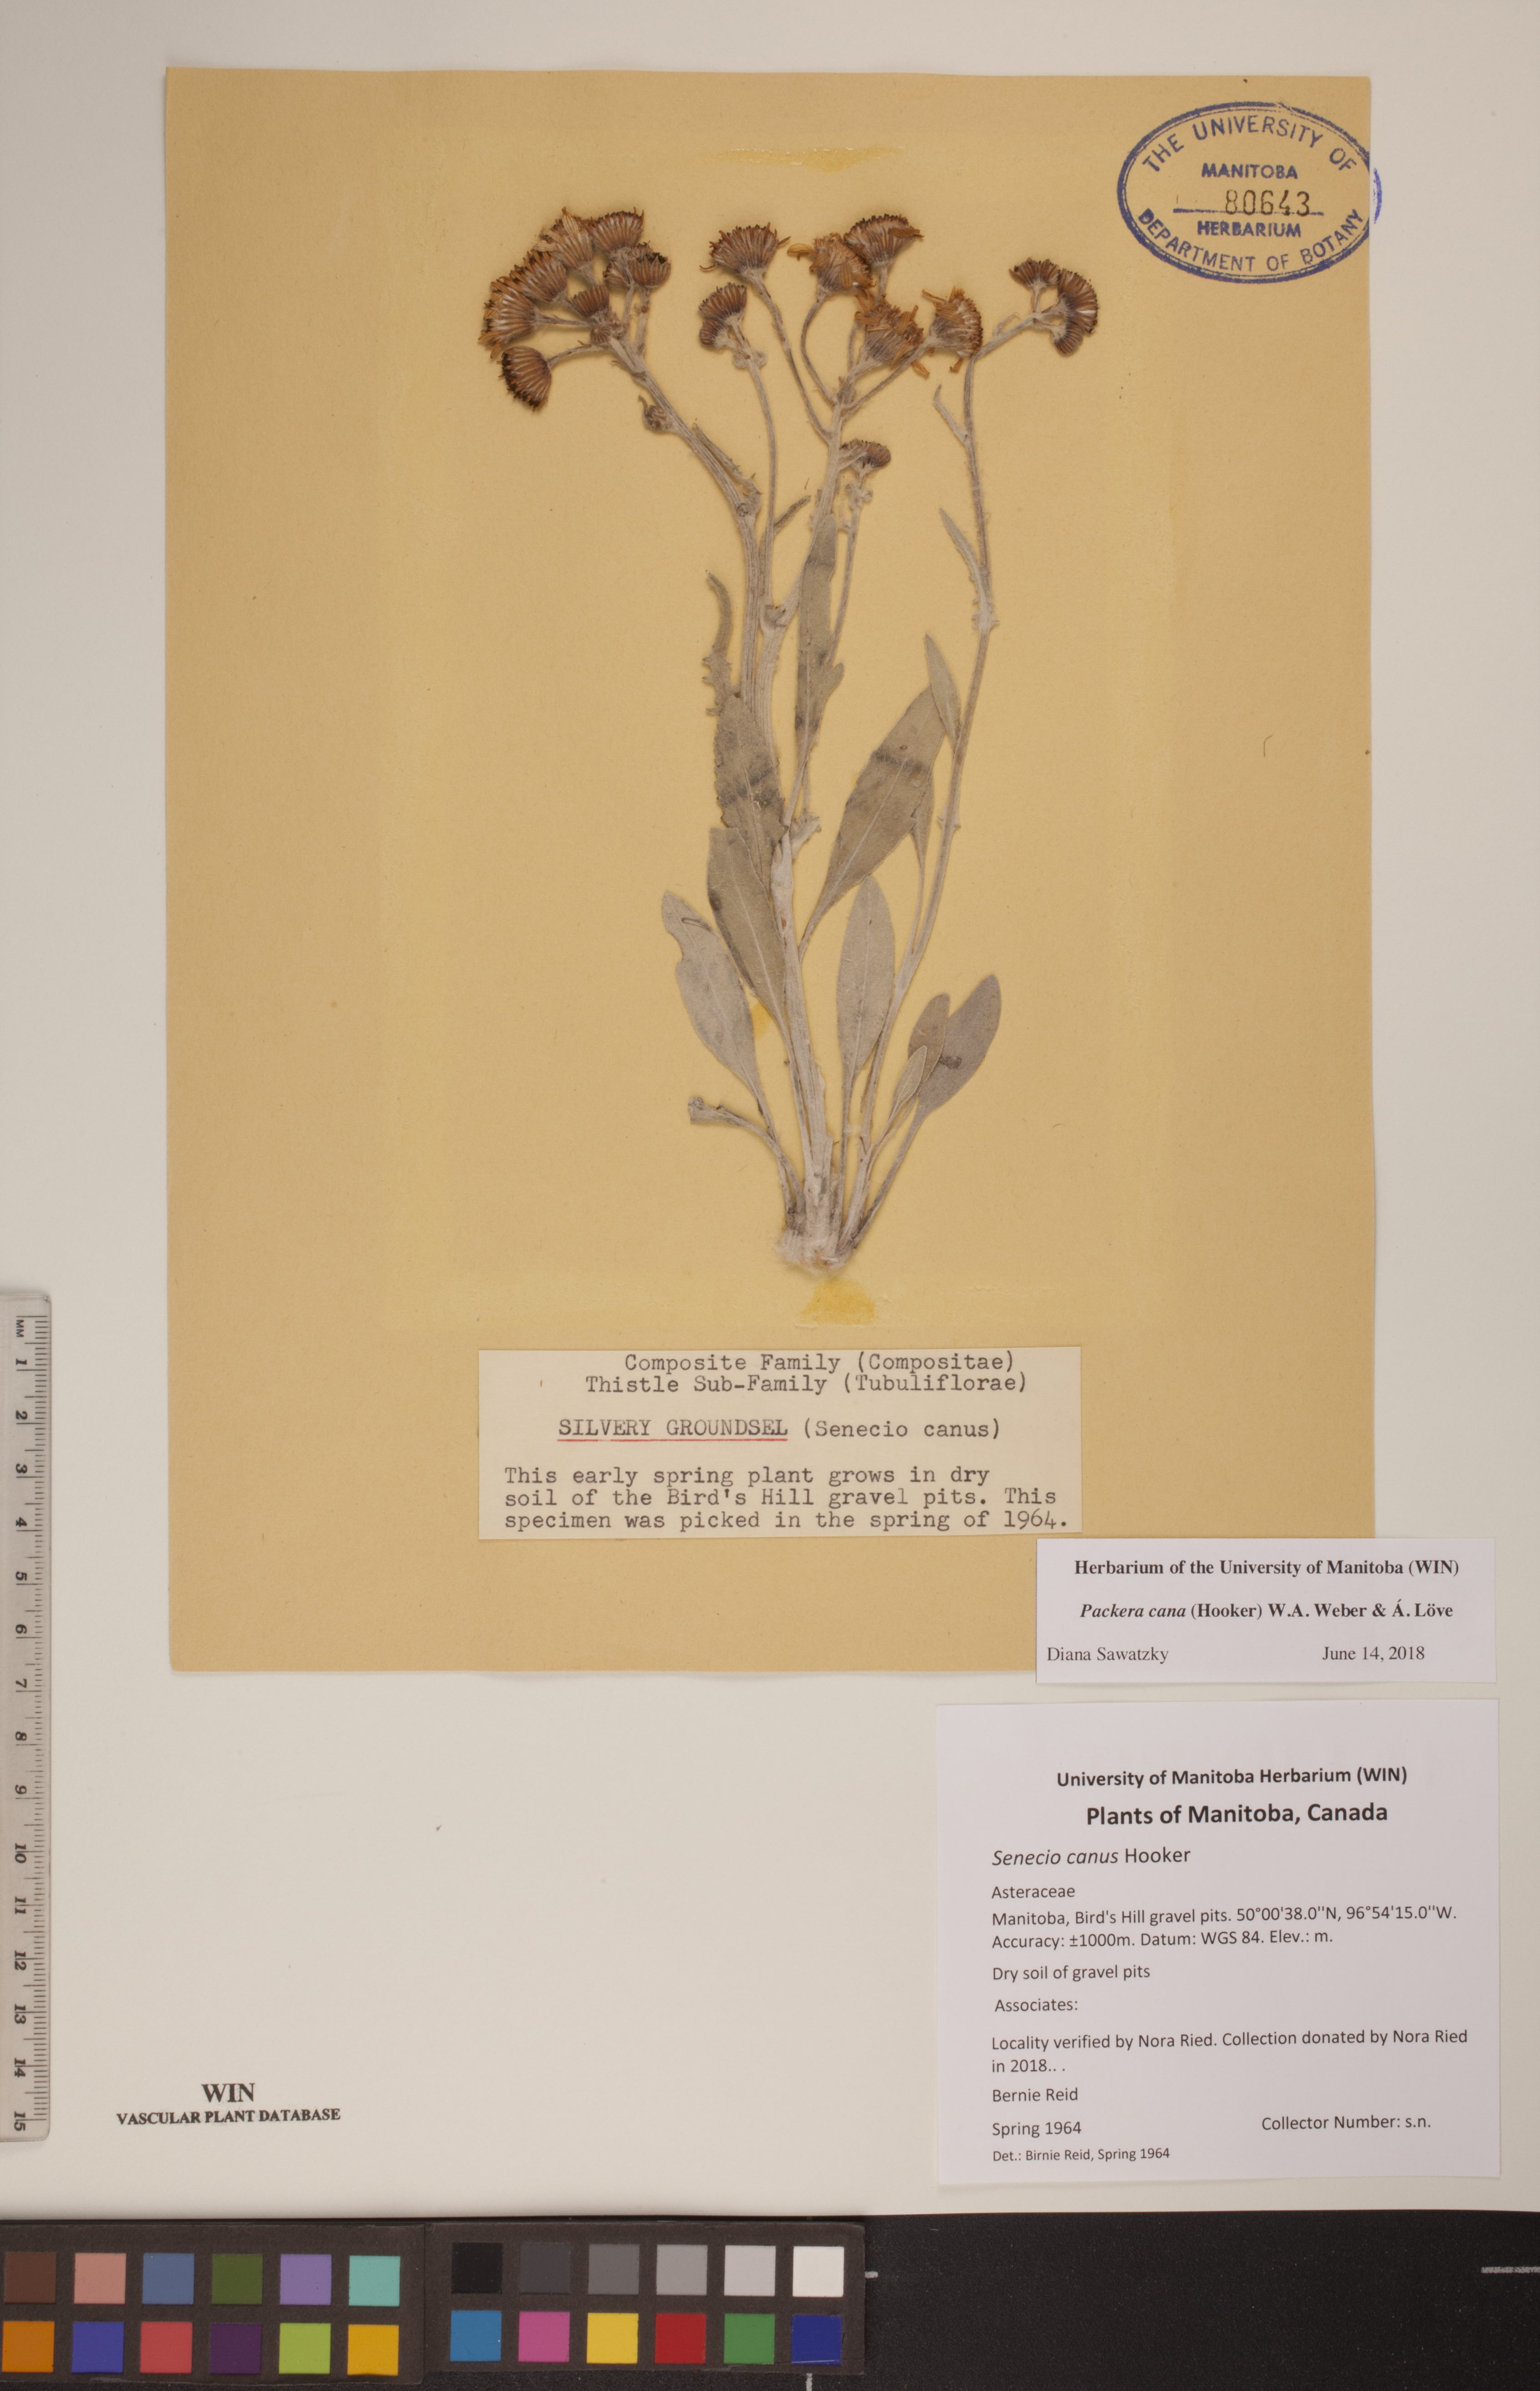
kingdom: Plantae
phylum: Tracheophyta
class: Magnoliopsida
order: Asterales
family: Asteraceae
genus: Packera
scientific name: Packera cana
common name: Woolly groundsel
